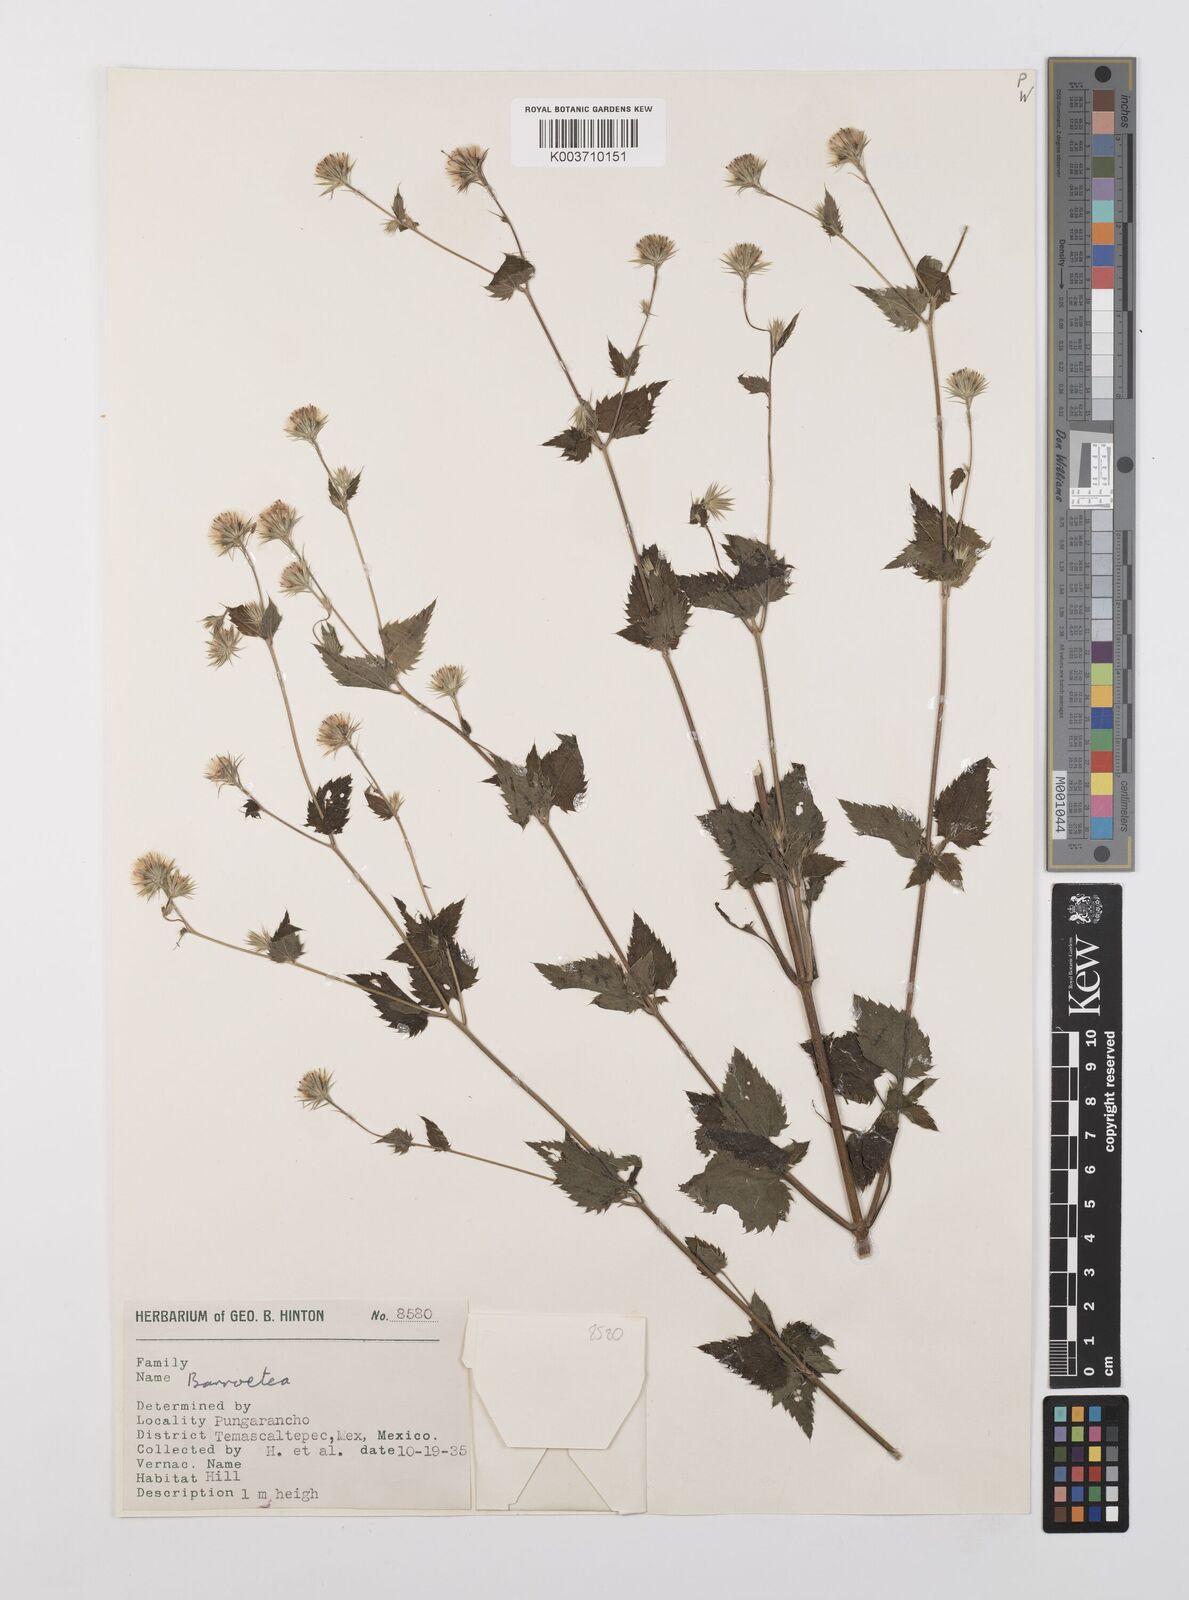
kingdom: Plantae
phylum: Tracheophyta
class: Magnoliopsida
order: Asterales
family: Asteraceae
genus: Brickellia
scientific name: Brickellia
